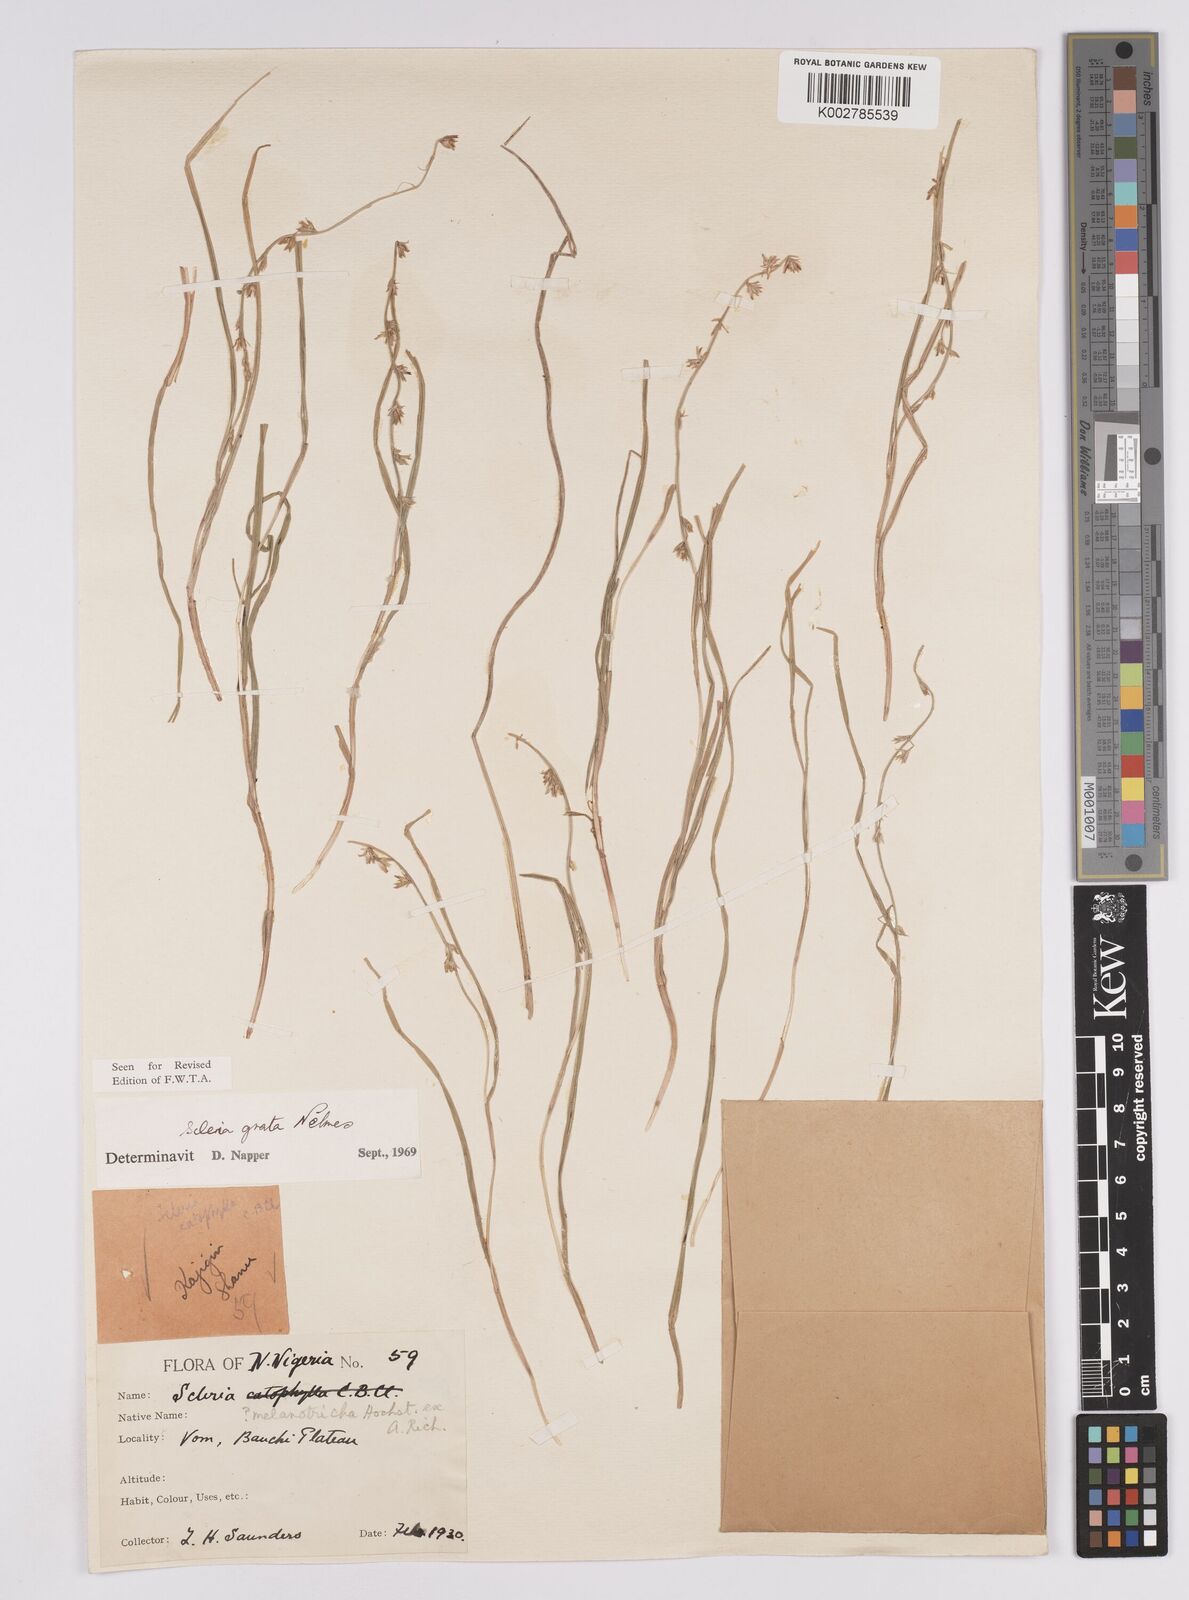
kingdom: Plantae
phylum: Tracheophyta
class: Liliopsida
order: Poales
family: Cyperaceae
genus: Scleria
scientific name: Scleria melanotricha
